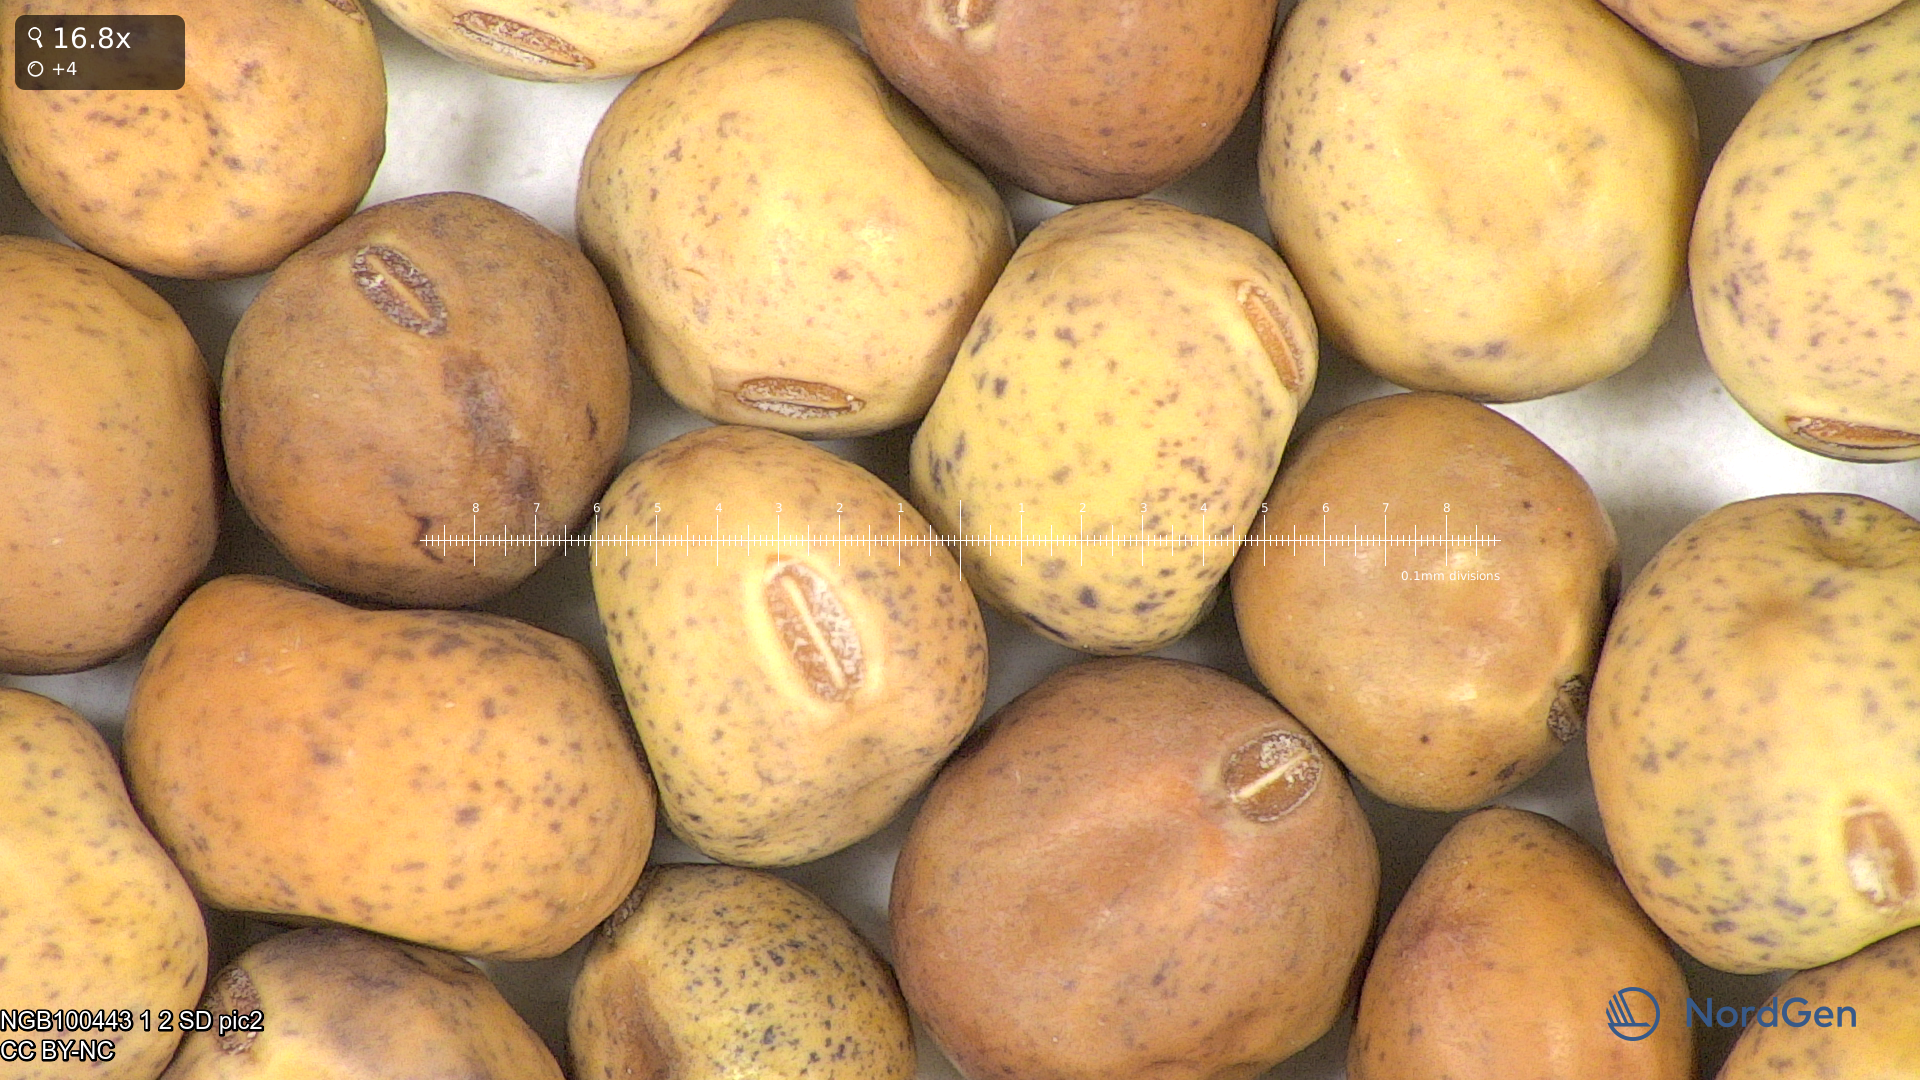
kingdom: Plantae
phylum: Tracheophyta
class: Magnoliopsida
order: Fabales
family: Fabaceae
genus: Lathyrus
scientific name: Lathyrus oleraceus
